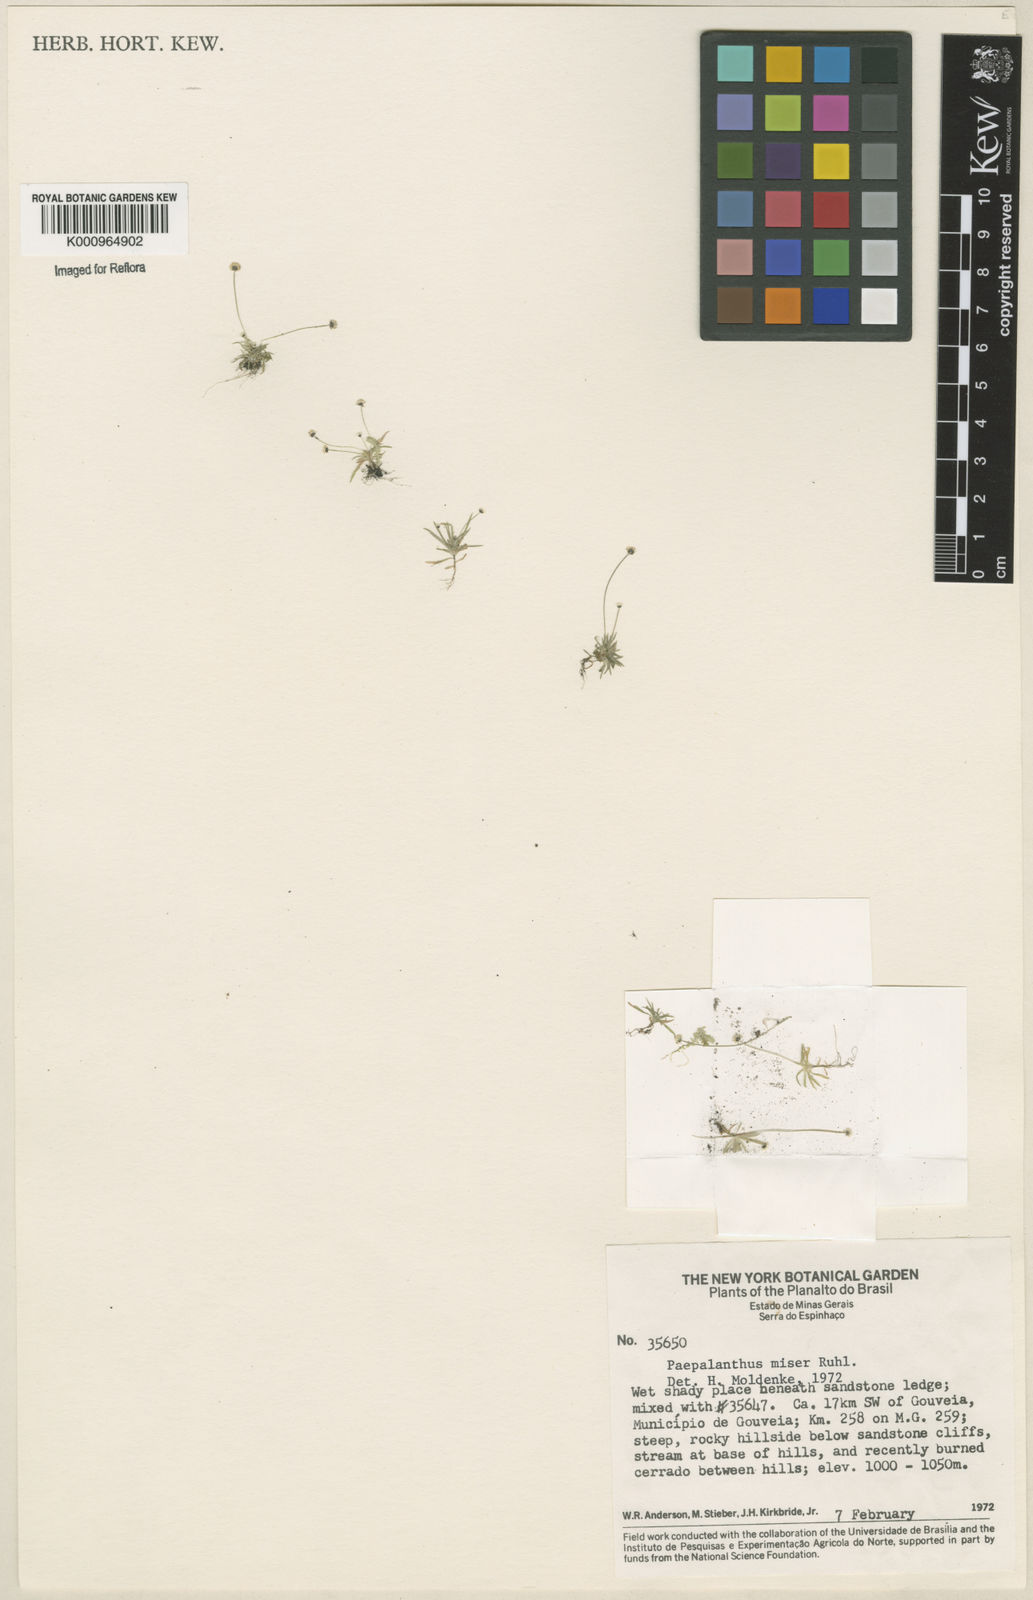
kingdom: Plantae
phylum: Tracheophyta
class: Liliopsida
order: Poales
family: Eriocaulaceae
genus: Paepalanthus
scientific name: Paepalanthus miser
